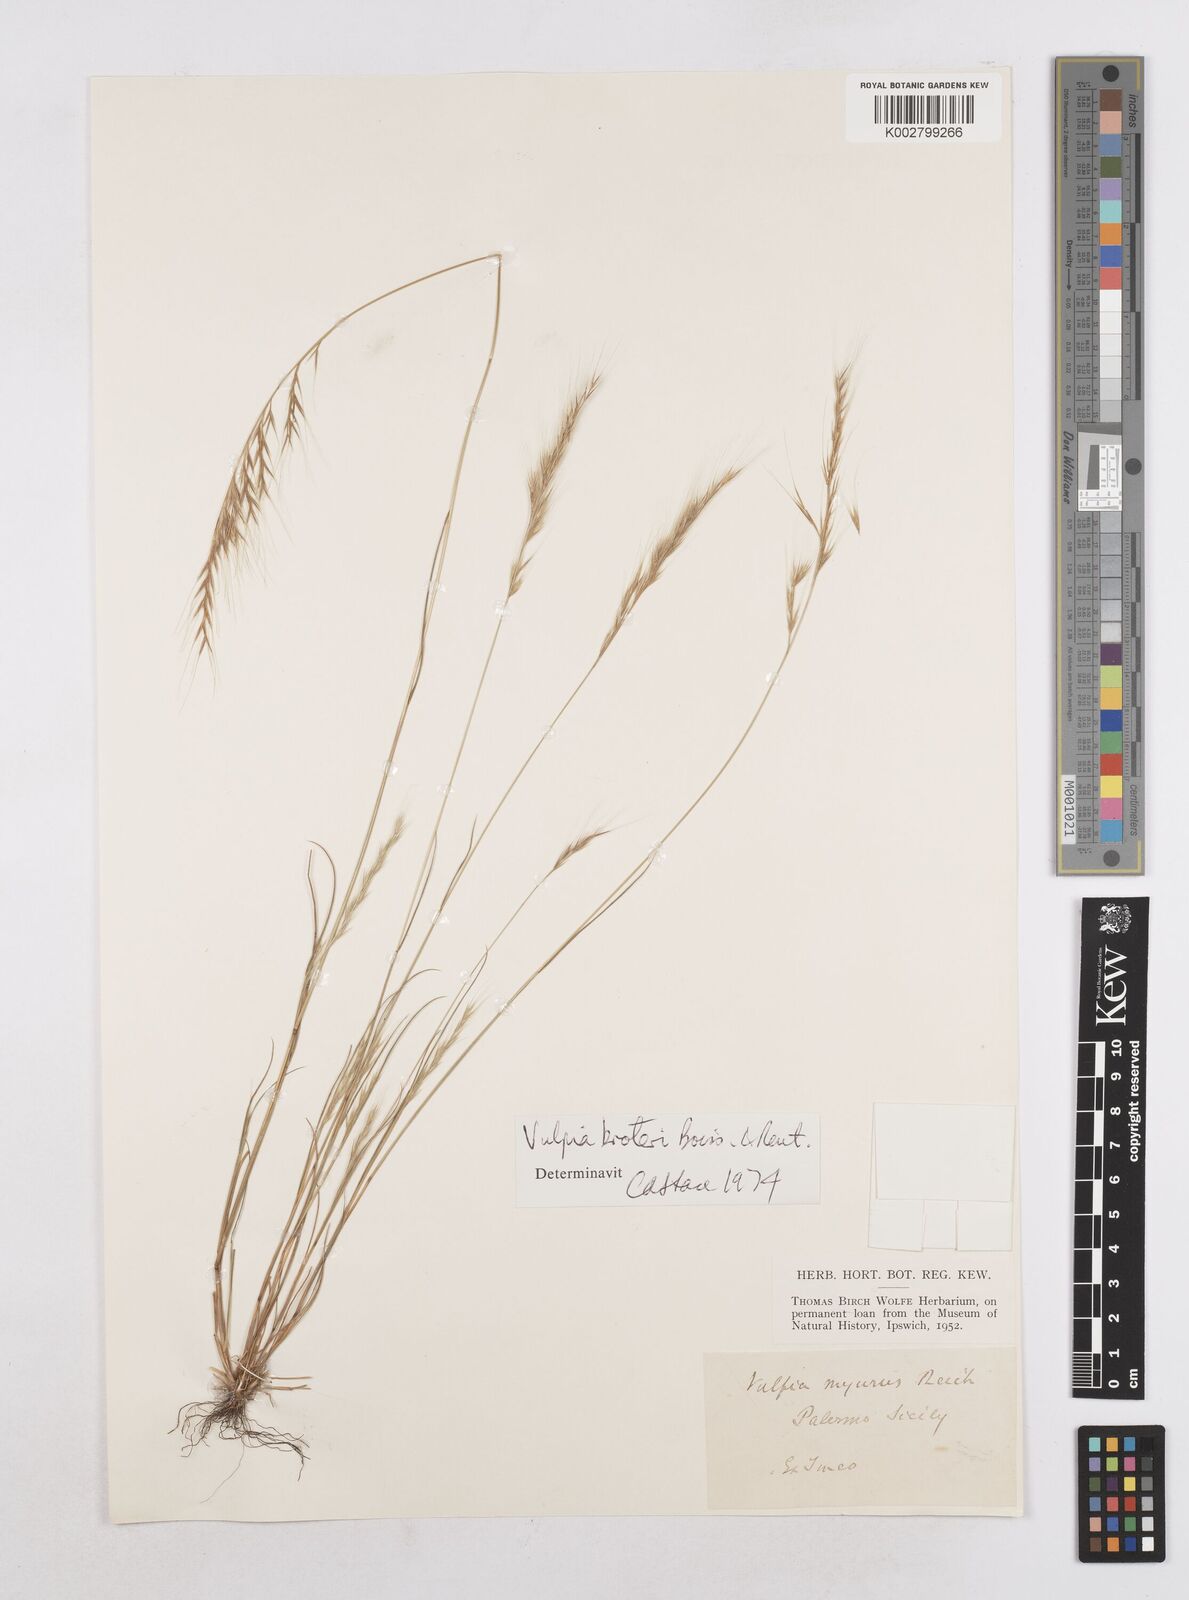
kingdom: Plantae
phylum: Tracheophyta
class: Liliopsida
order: Poales
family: Poaceae
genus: Festuca
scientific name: Festuca muralis
